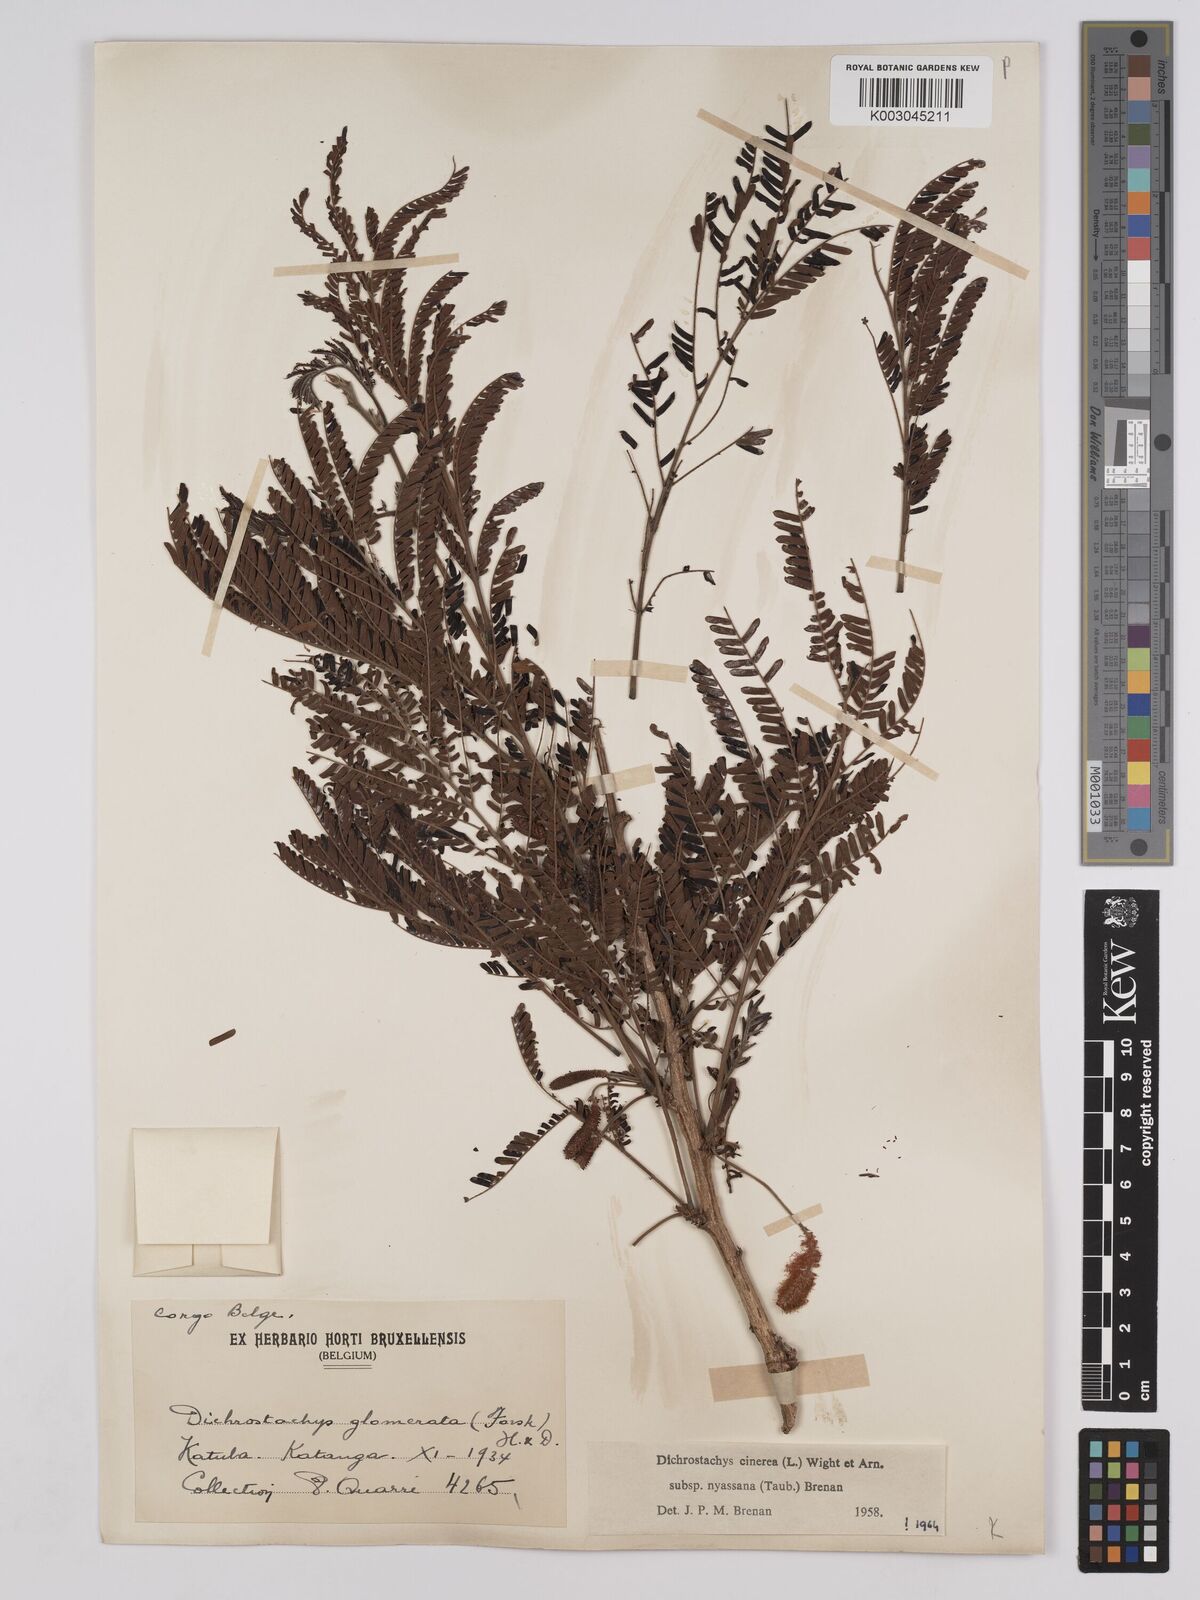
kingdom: Plantae
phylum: Tracheophyta
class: Magnoliopsida
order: Fabales
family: Fabaceae
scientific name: Fabaceae
